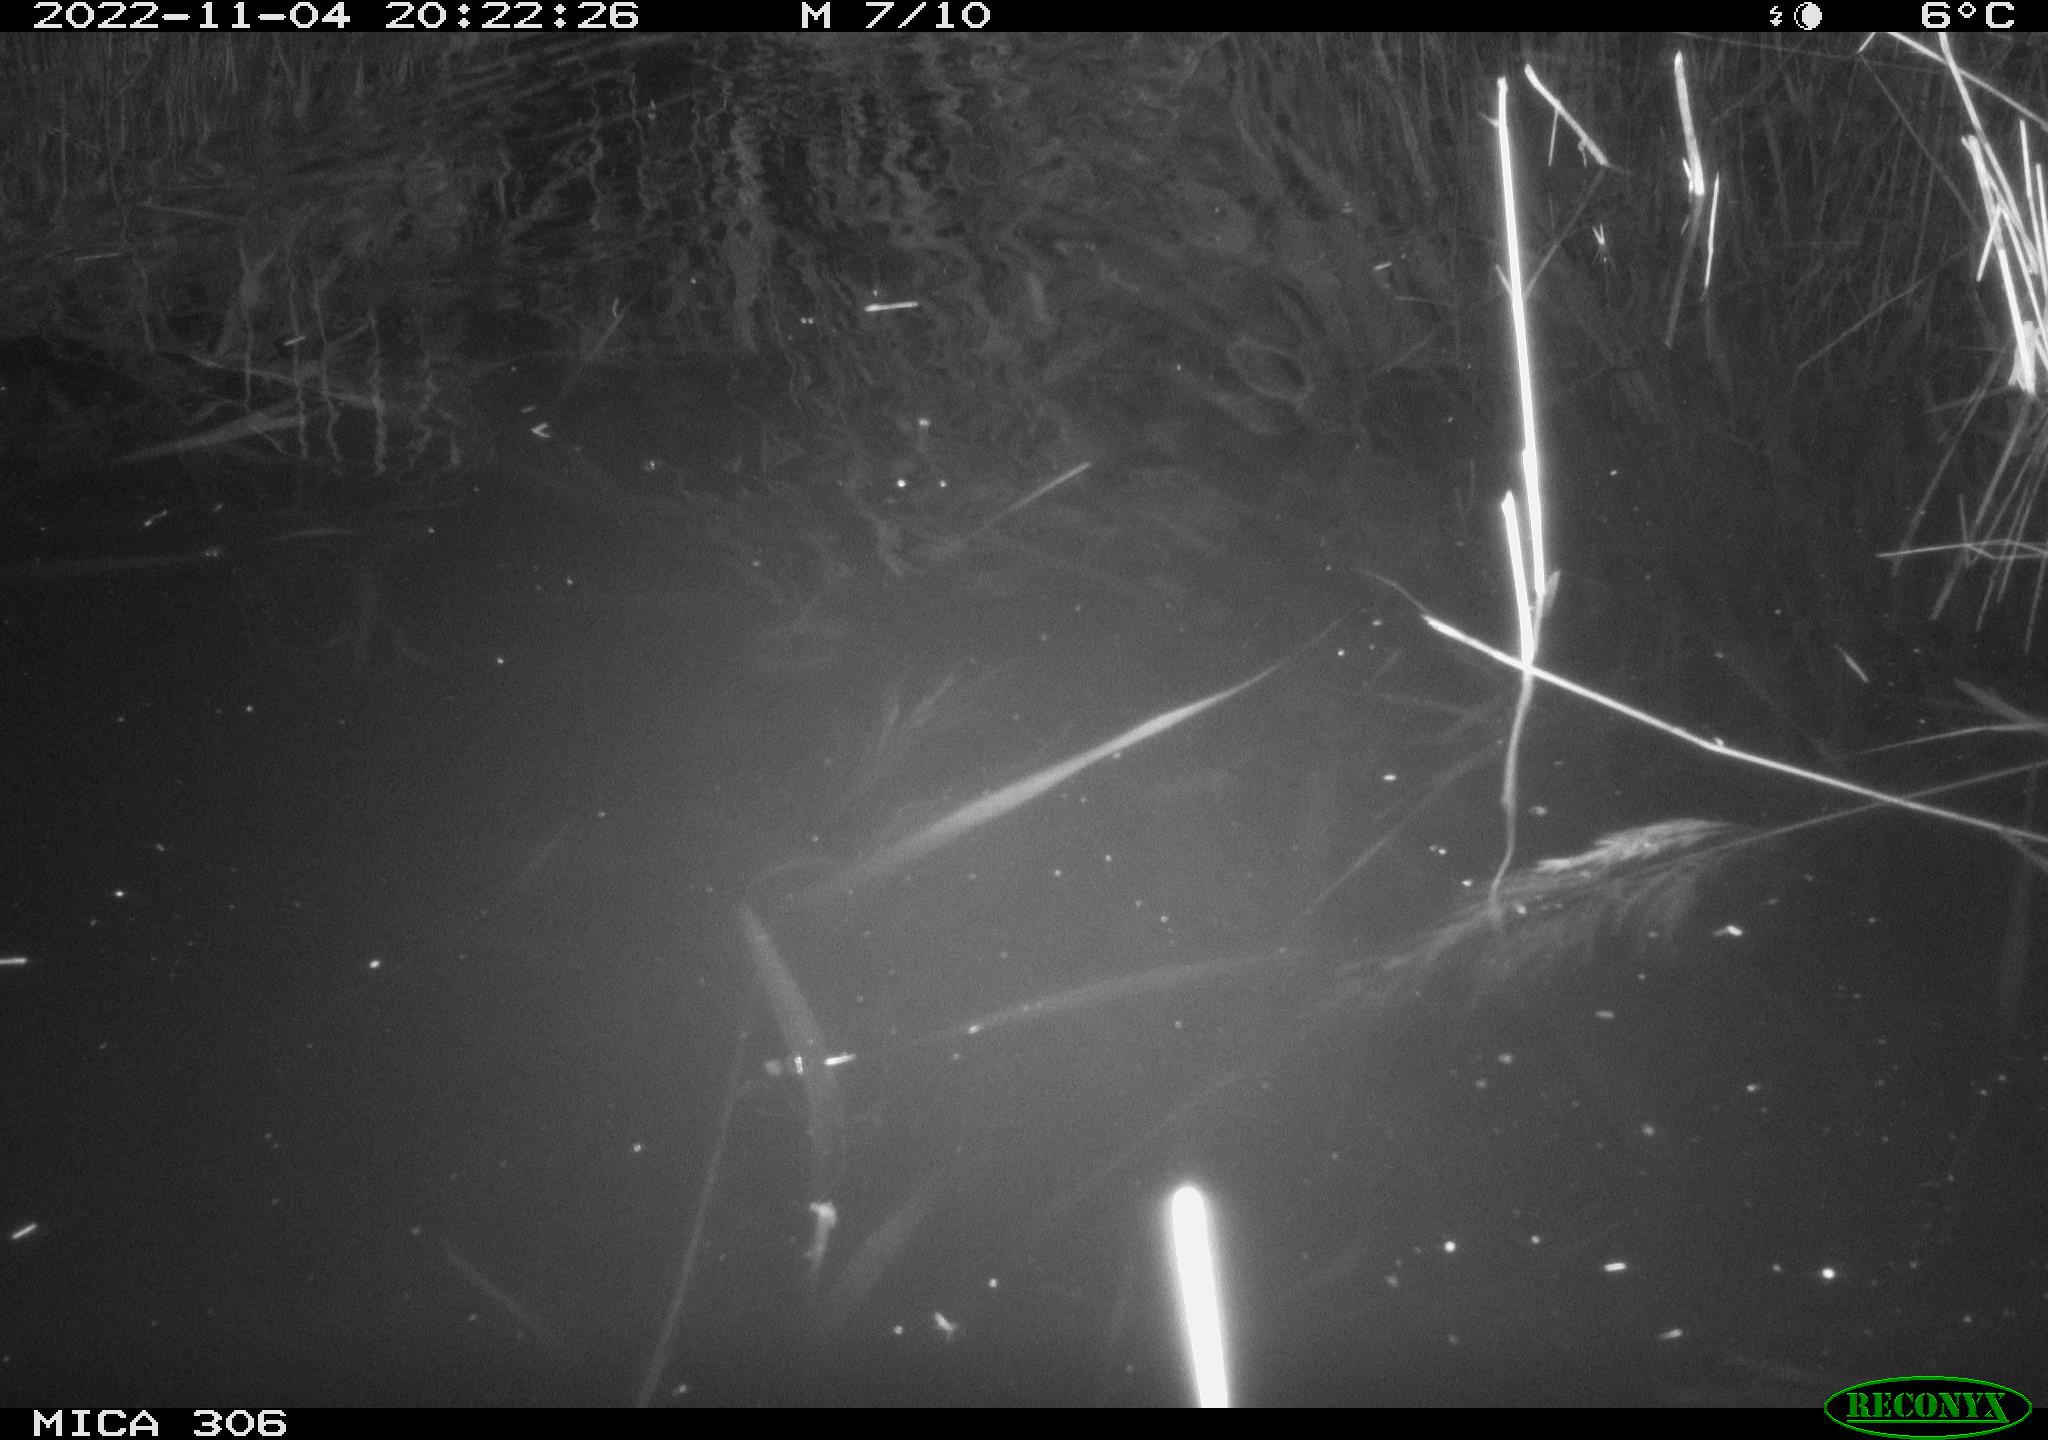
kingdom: Animalia
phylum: Chordata
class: Mammalia
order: Rodentia
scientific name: Rodentia
